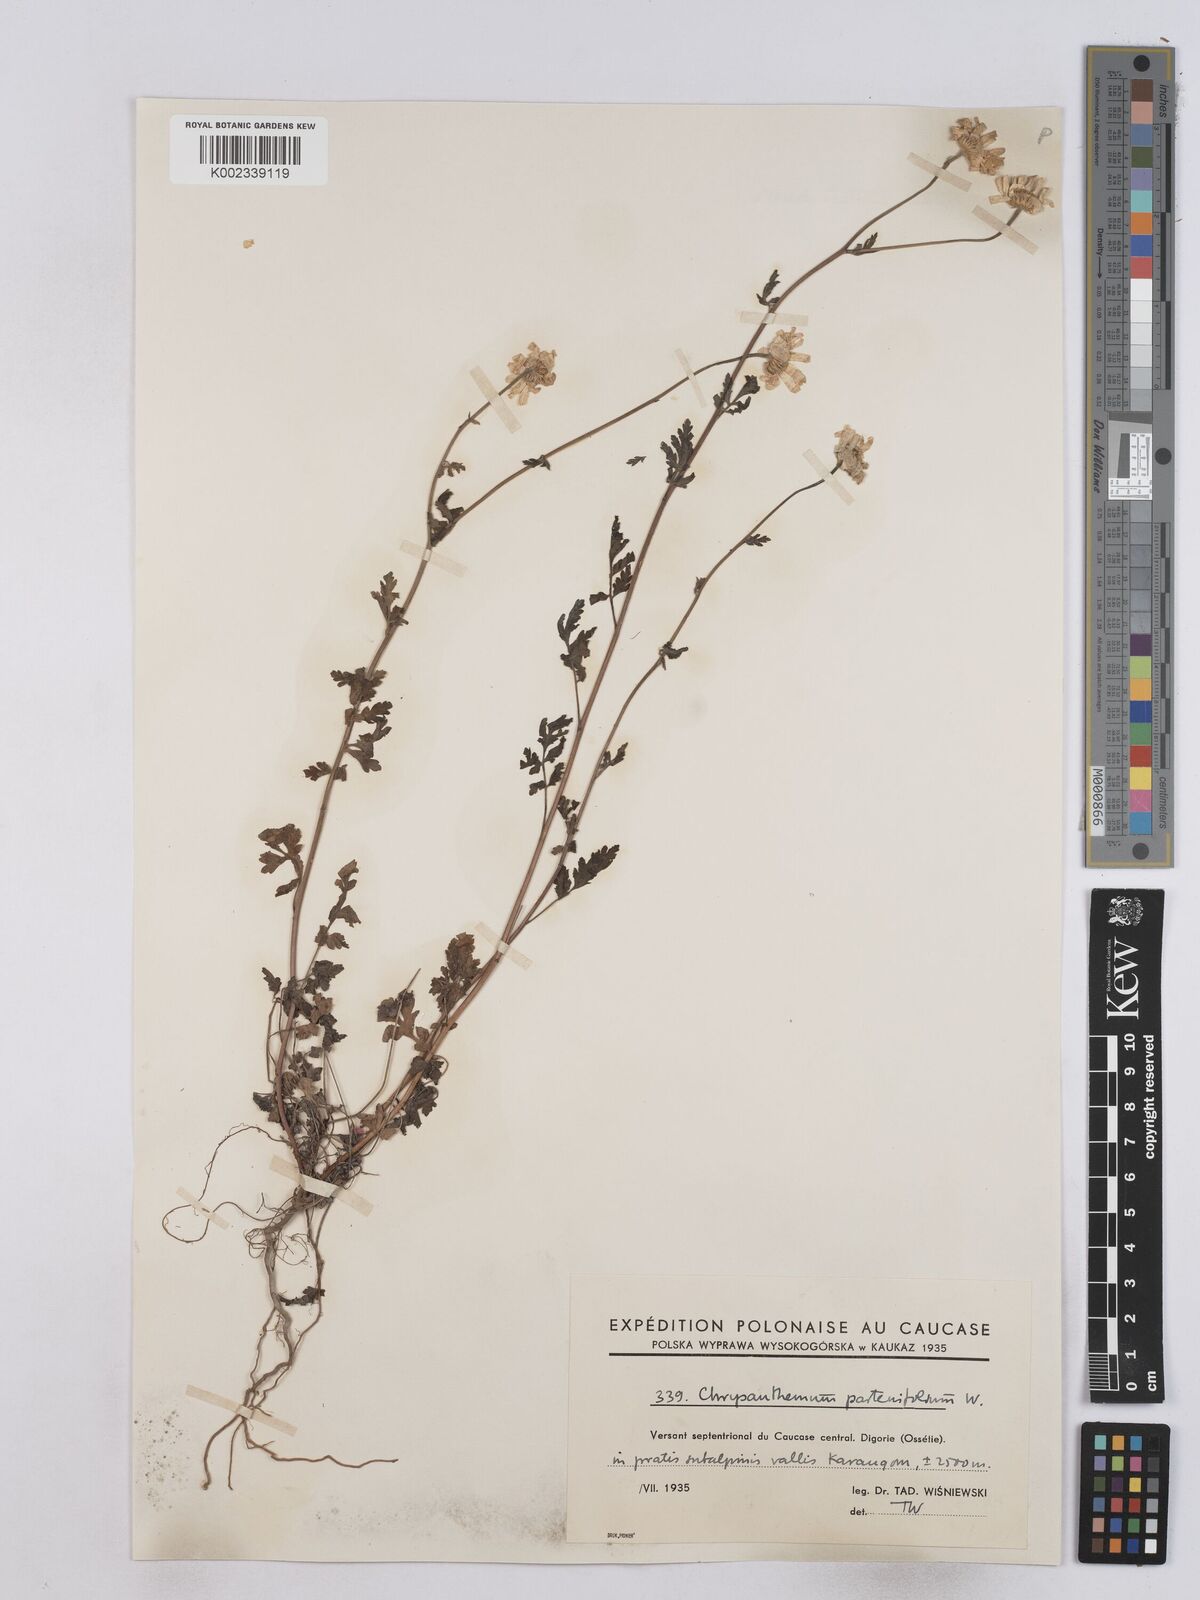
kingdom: Plantae
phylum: Tracheophyta
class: Magnoliopsida
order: Asterales
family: Asteraceae
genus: Tanacetum
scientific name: Tanacetum partheniifolium
